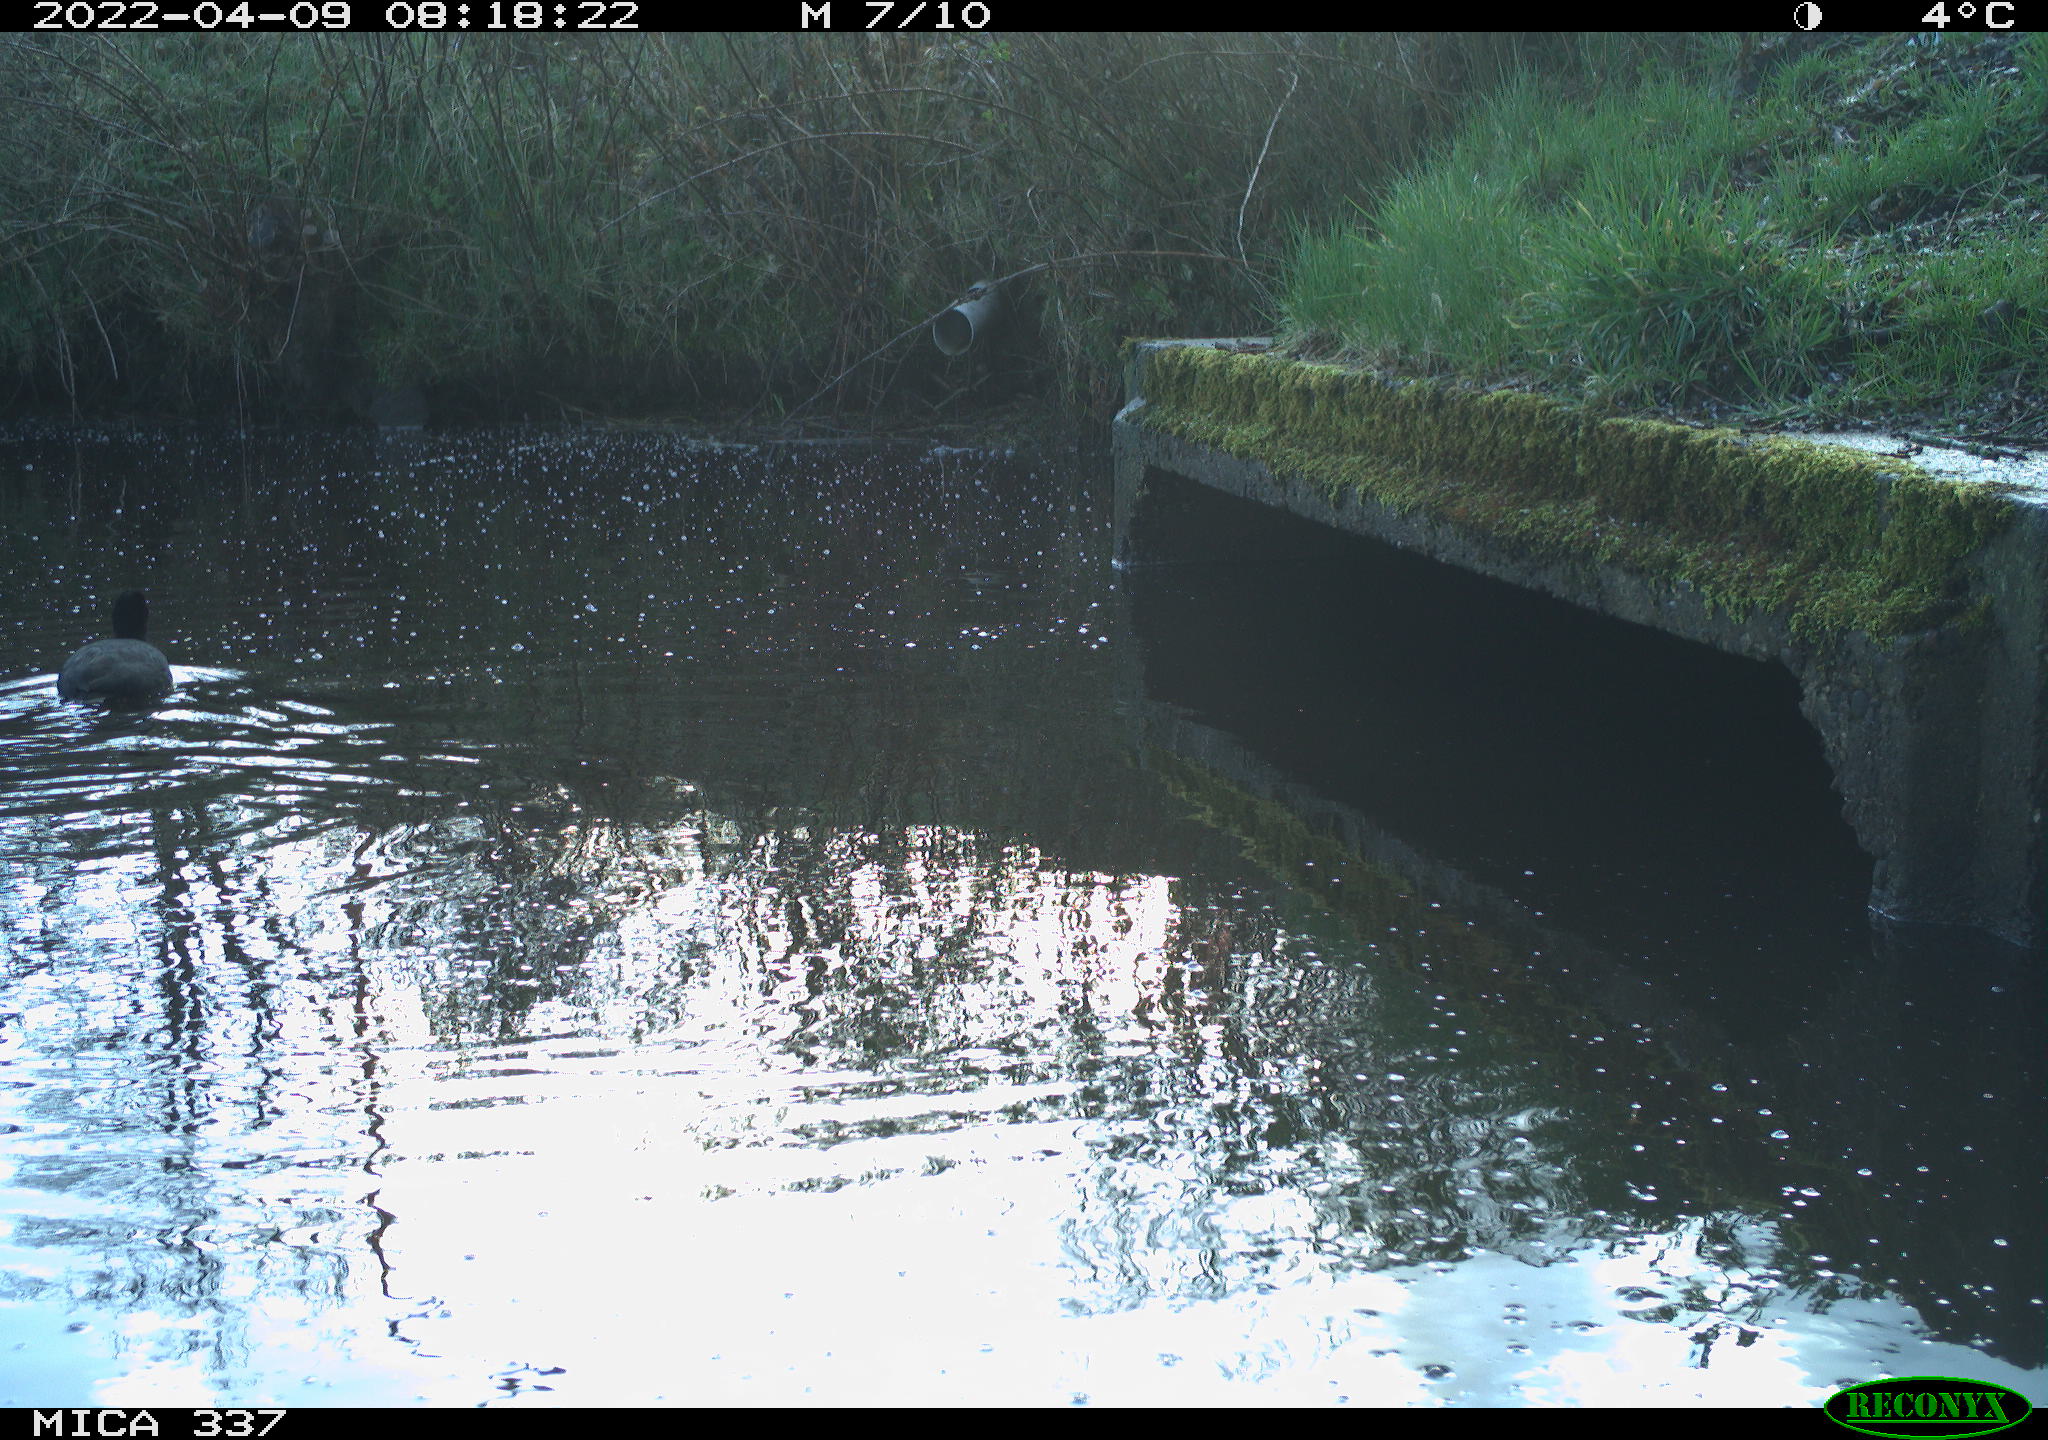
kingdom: Animalia
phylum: Chordata
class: Aves
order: Gruiformes
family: Rallidae
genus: Fulica
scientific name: Fulica atra
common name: Eurasian coot
